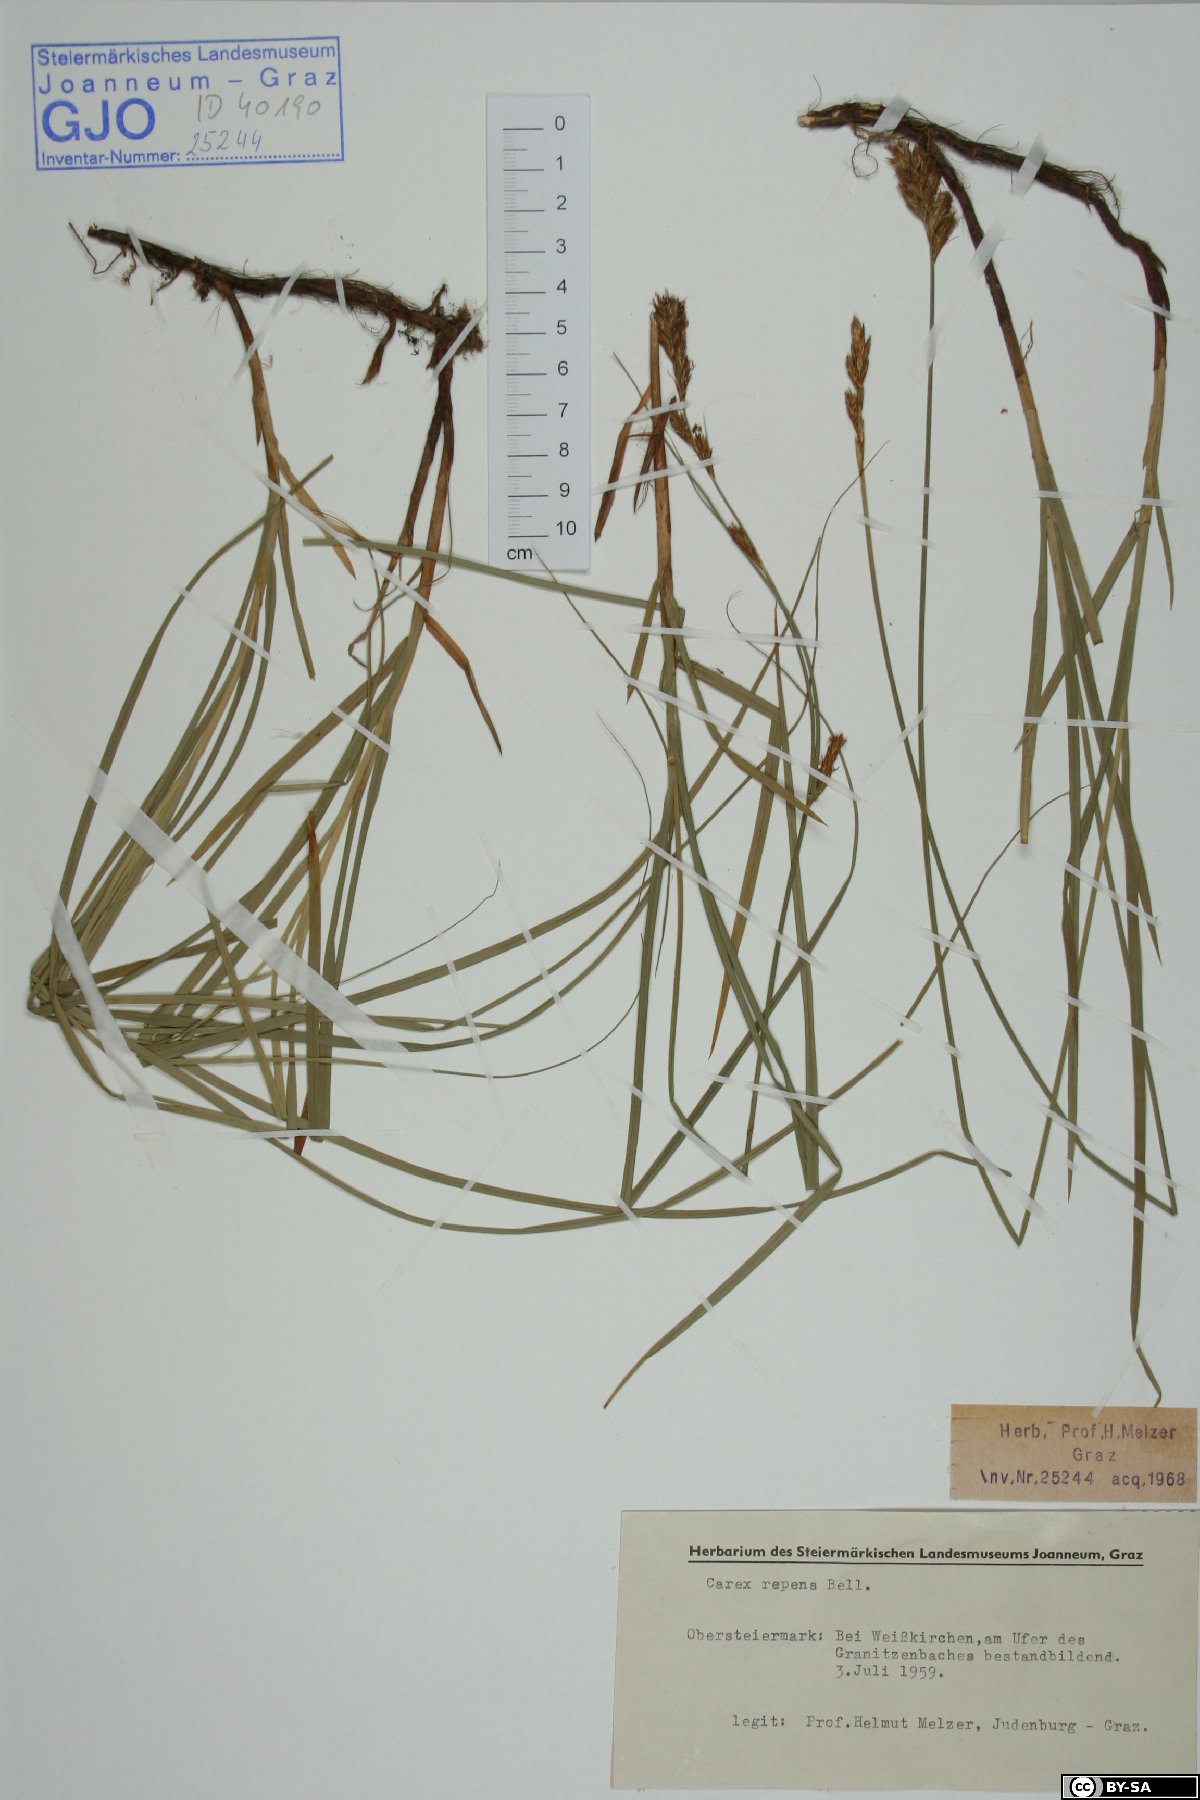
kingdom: Plantae
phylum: Tracheophyta
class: Liliopsida
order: Poales
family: Cyperaceae
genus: Carex
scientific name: Carex repens
